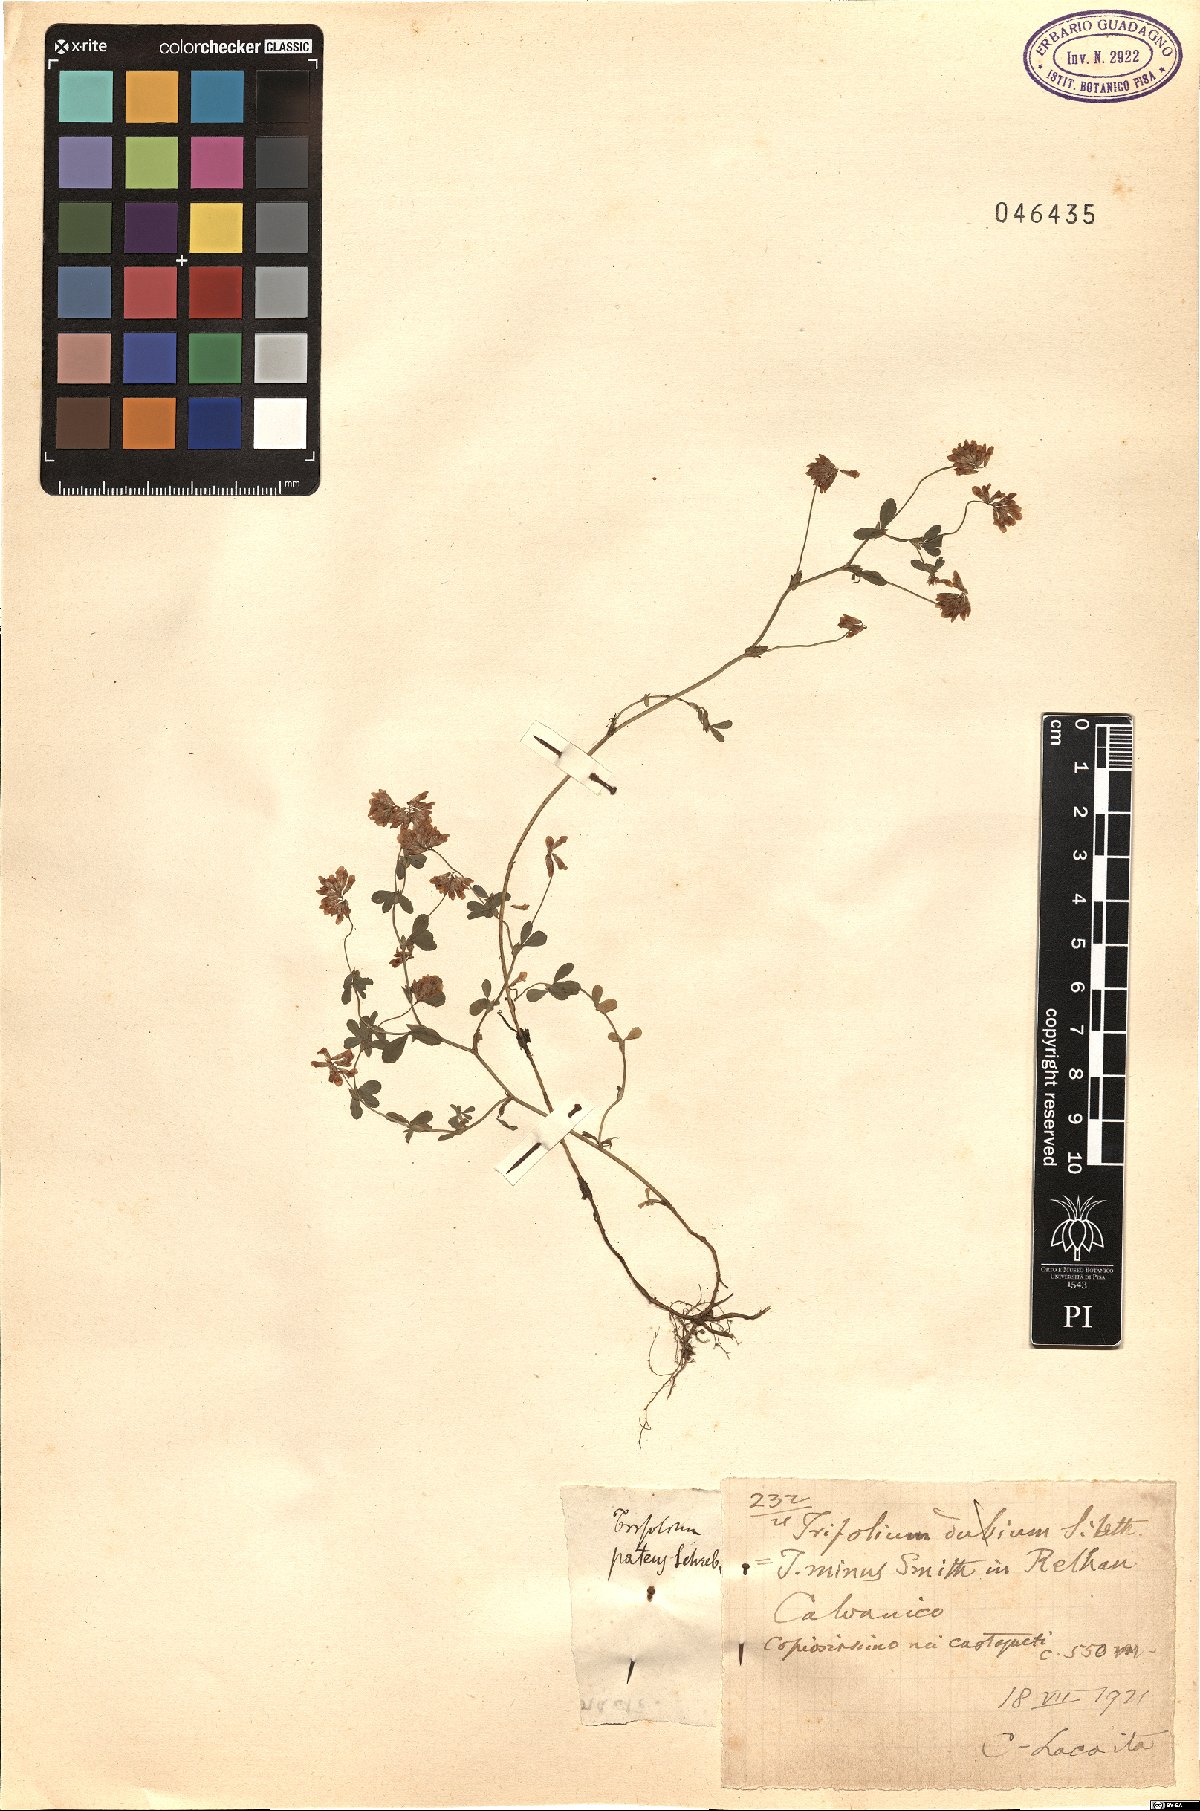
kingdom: Plantae
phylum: Tracheophyta
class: Magnoliopsida
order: Fabales
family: Fabaceae
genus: Trifolium
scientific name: Trifolium patens
